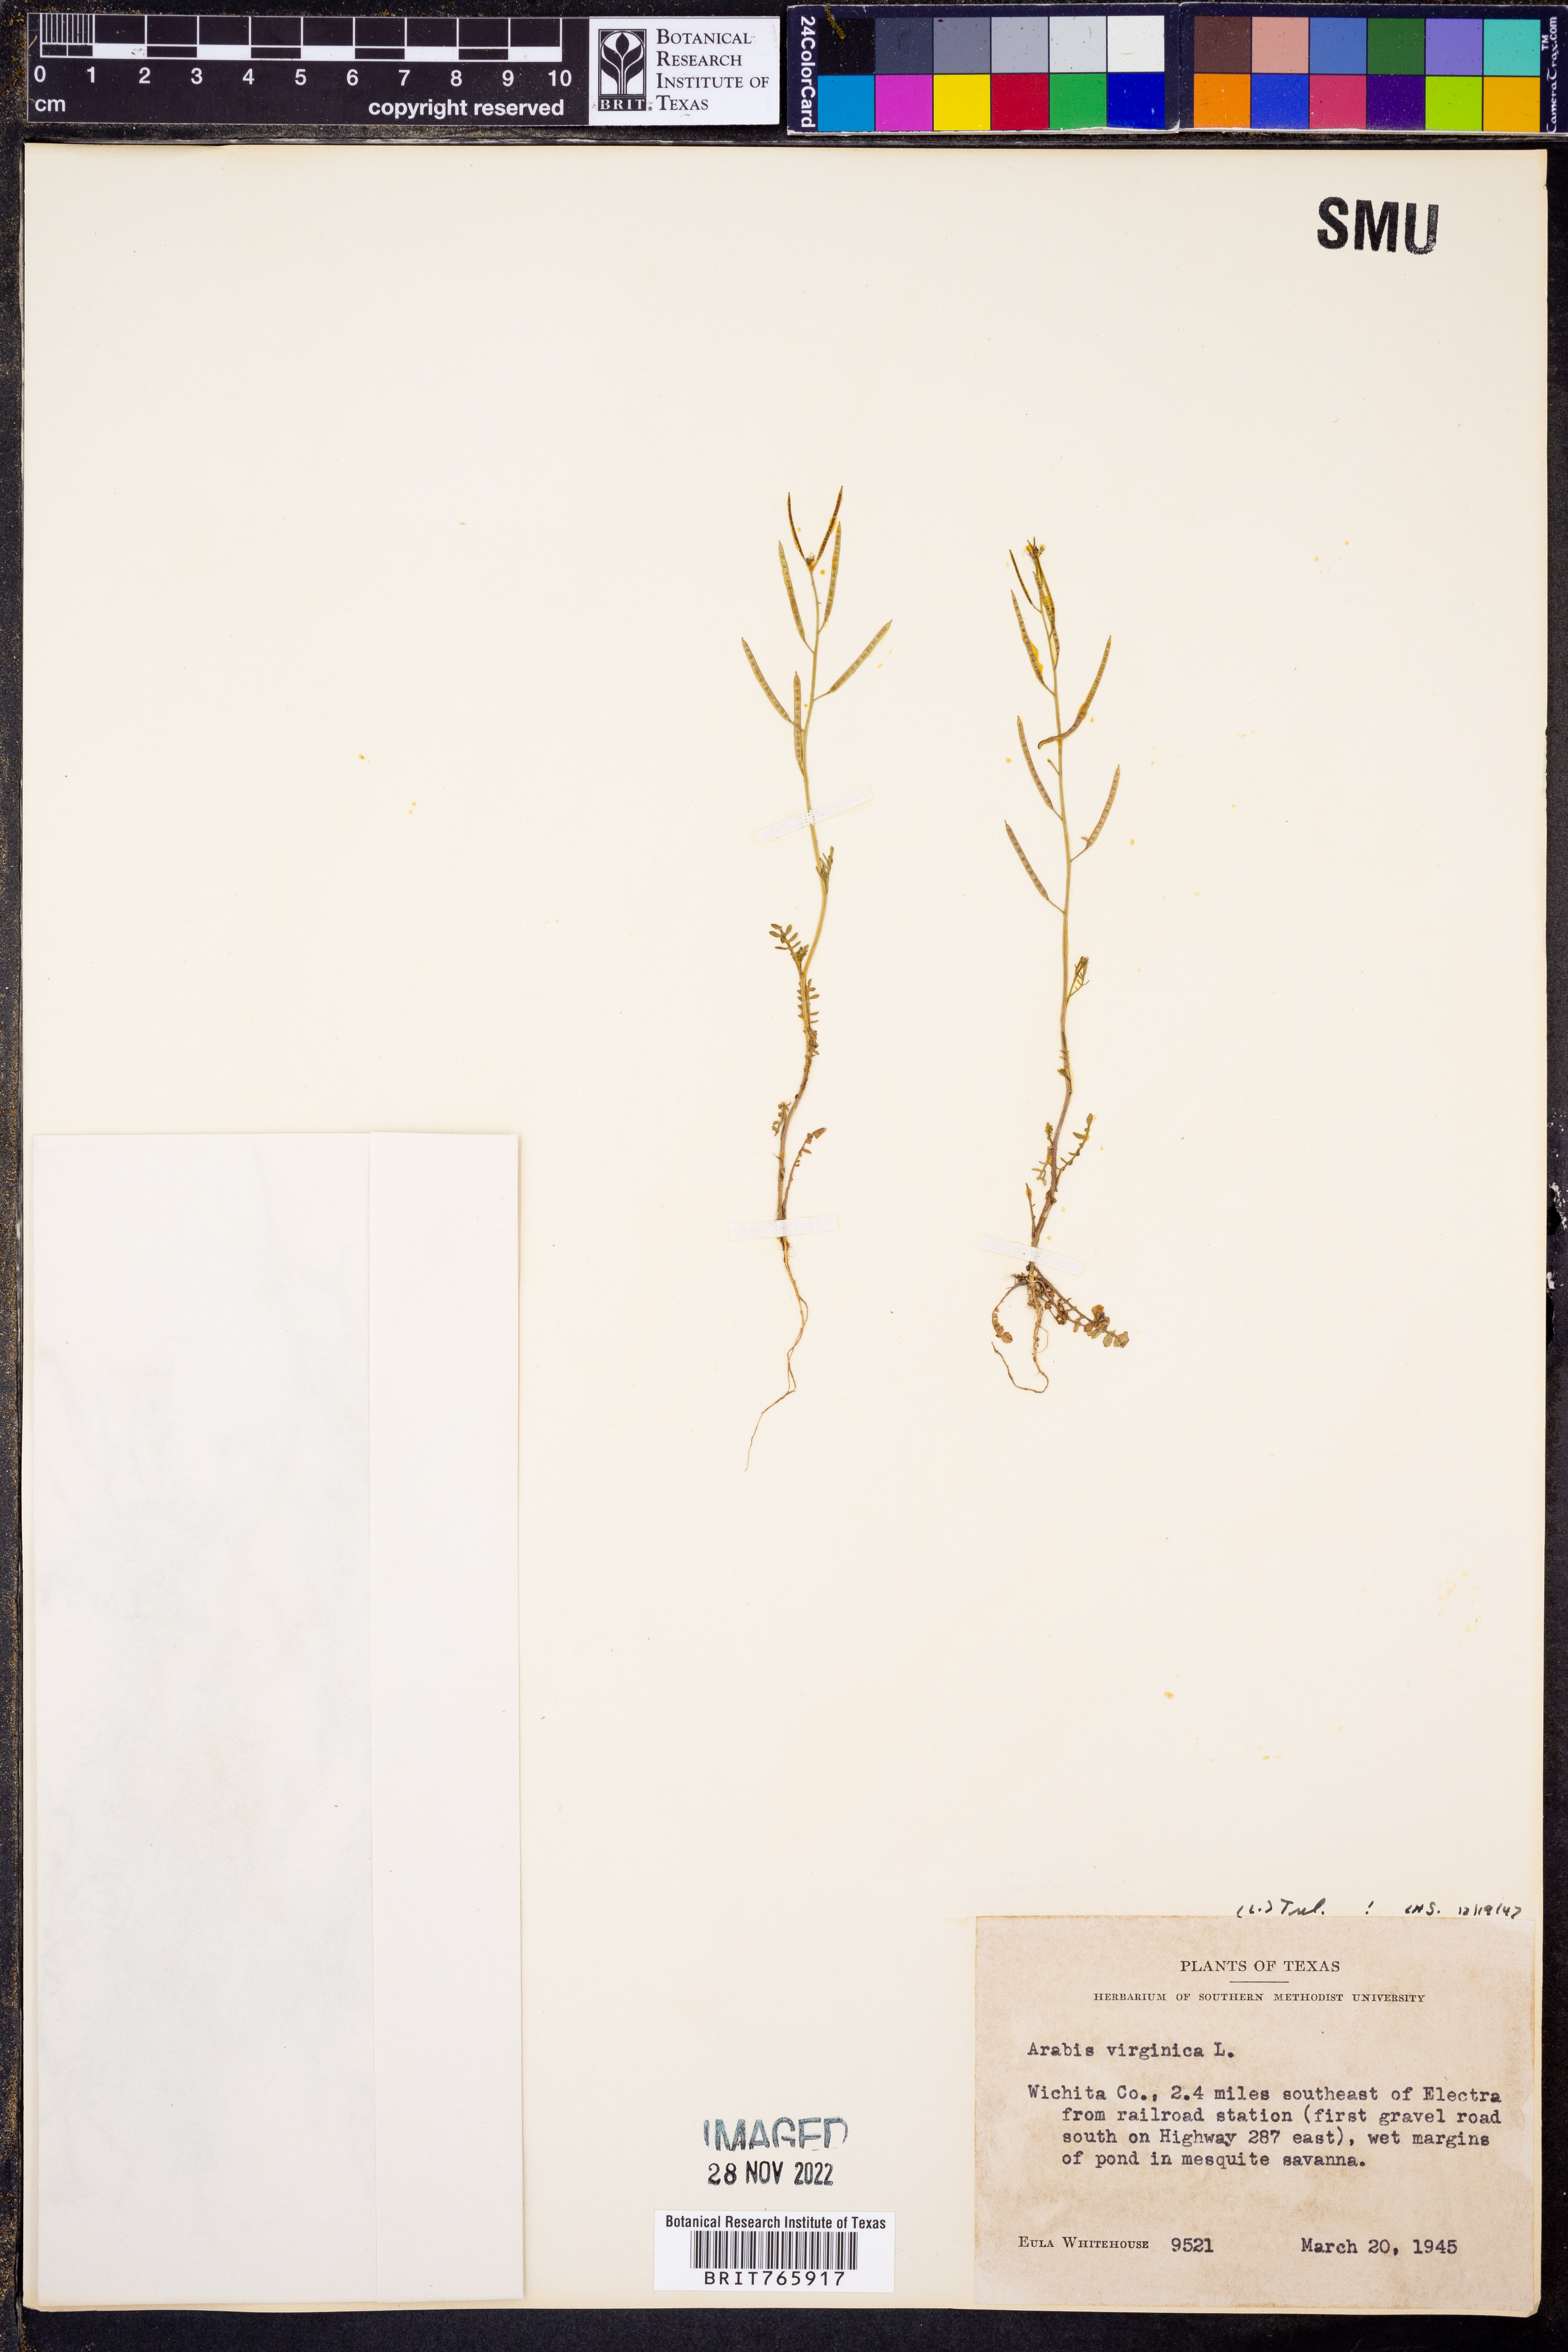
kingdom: Plantae
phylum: Tracheophyta
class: Magnoliopsida
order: Brassicales
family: Brassicaceae
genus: Planodes
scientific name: Planodes virginicum
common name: Virginia cress
